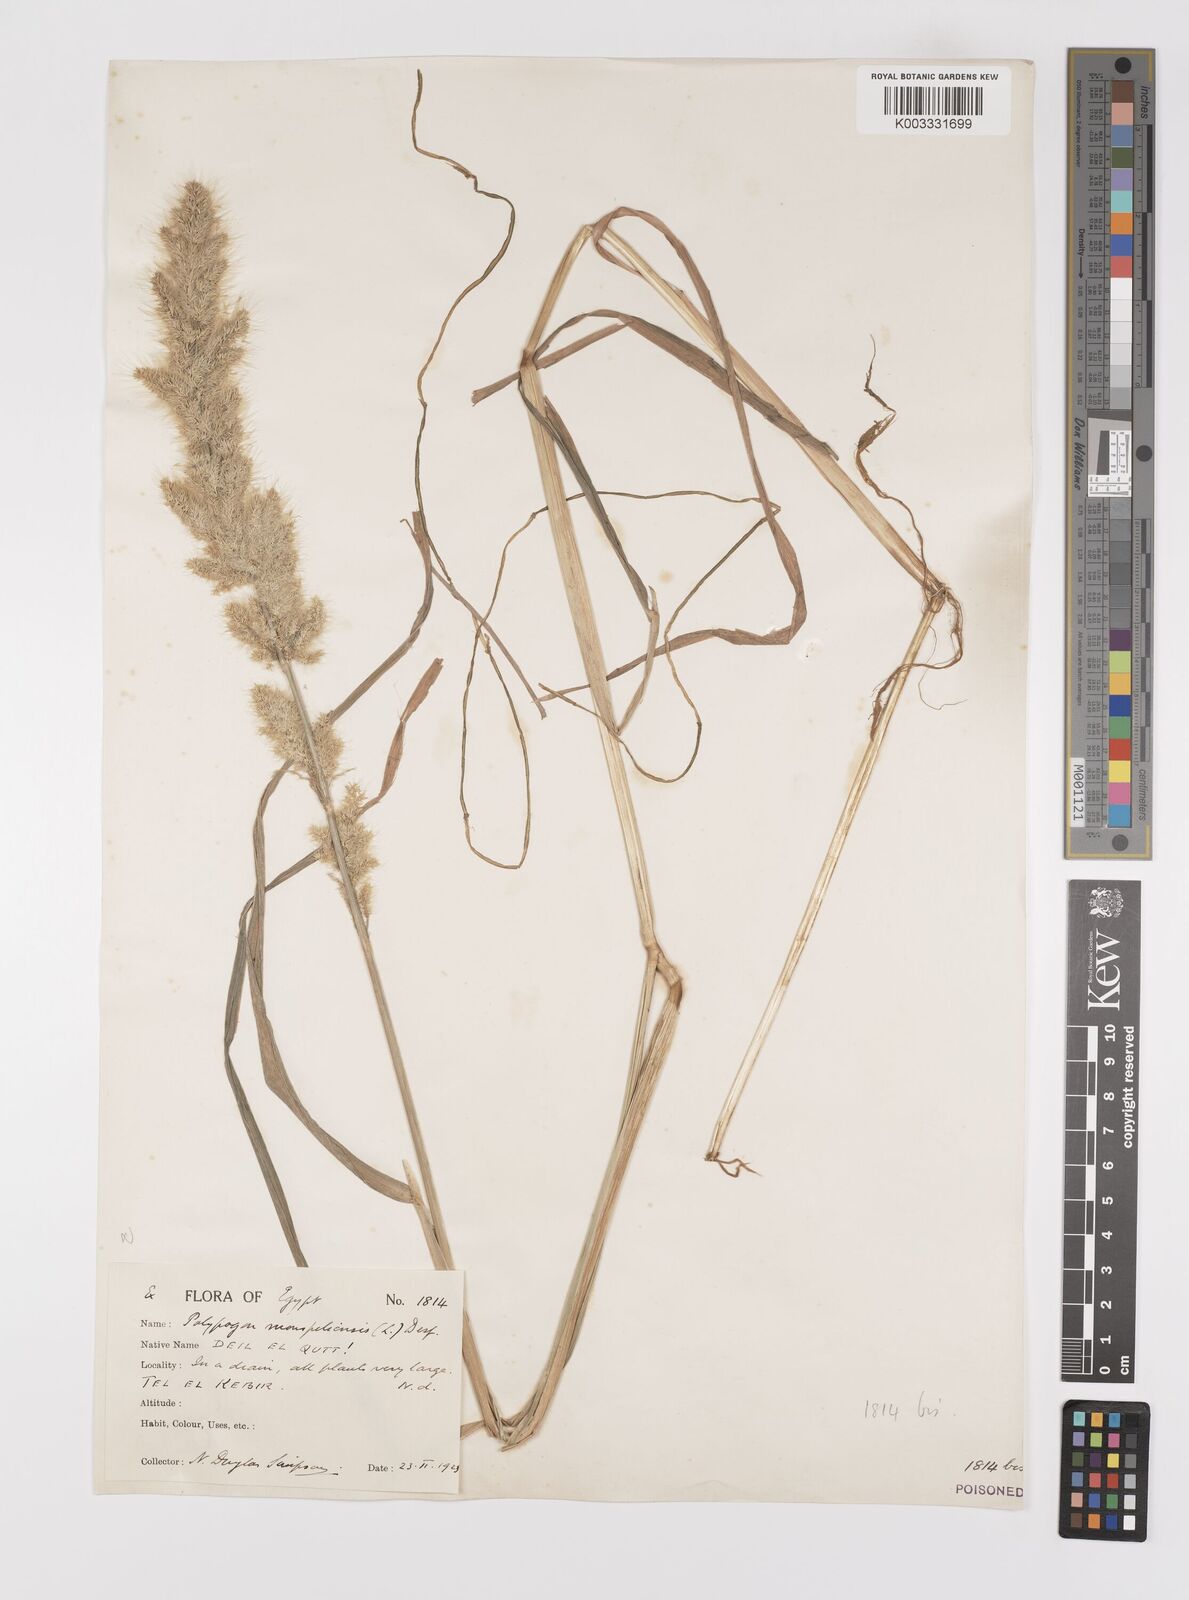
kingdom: Plantae
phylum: Tracheophyta
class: Liliopsida
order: Poales
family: Poaceae
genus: Polypogon
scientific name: Polypogon monspeliensis
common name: Annual rabbitsfoot grass
